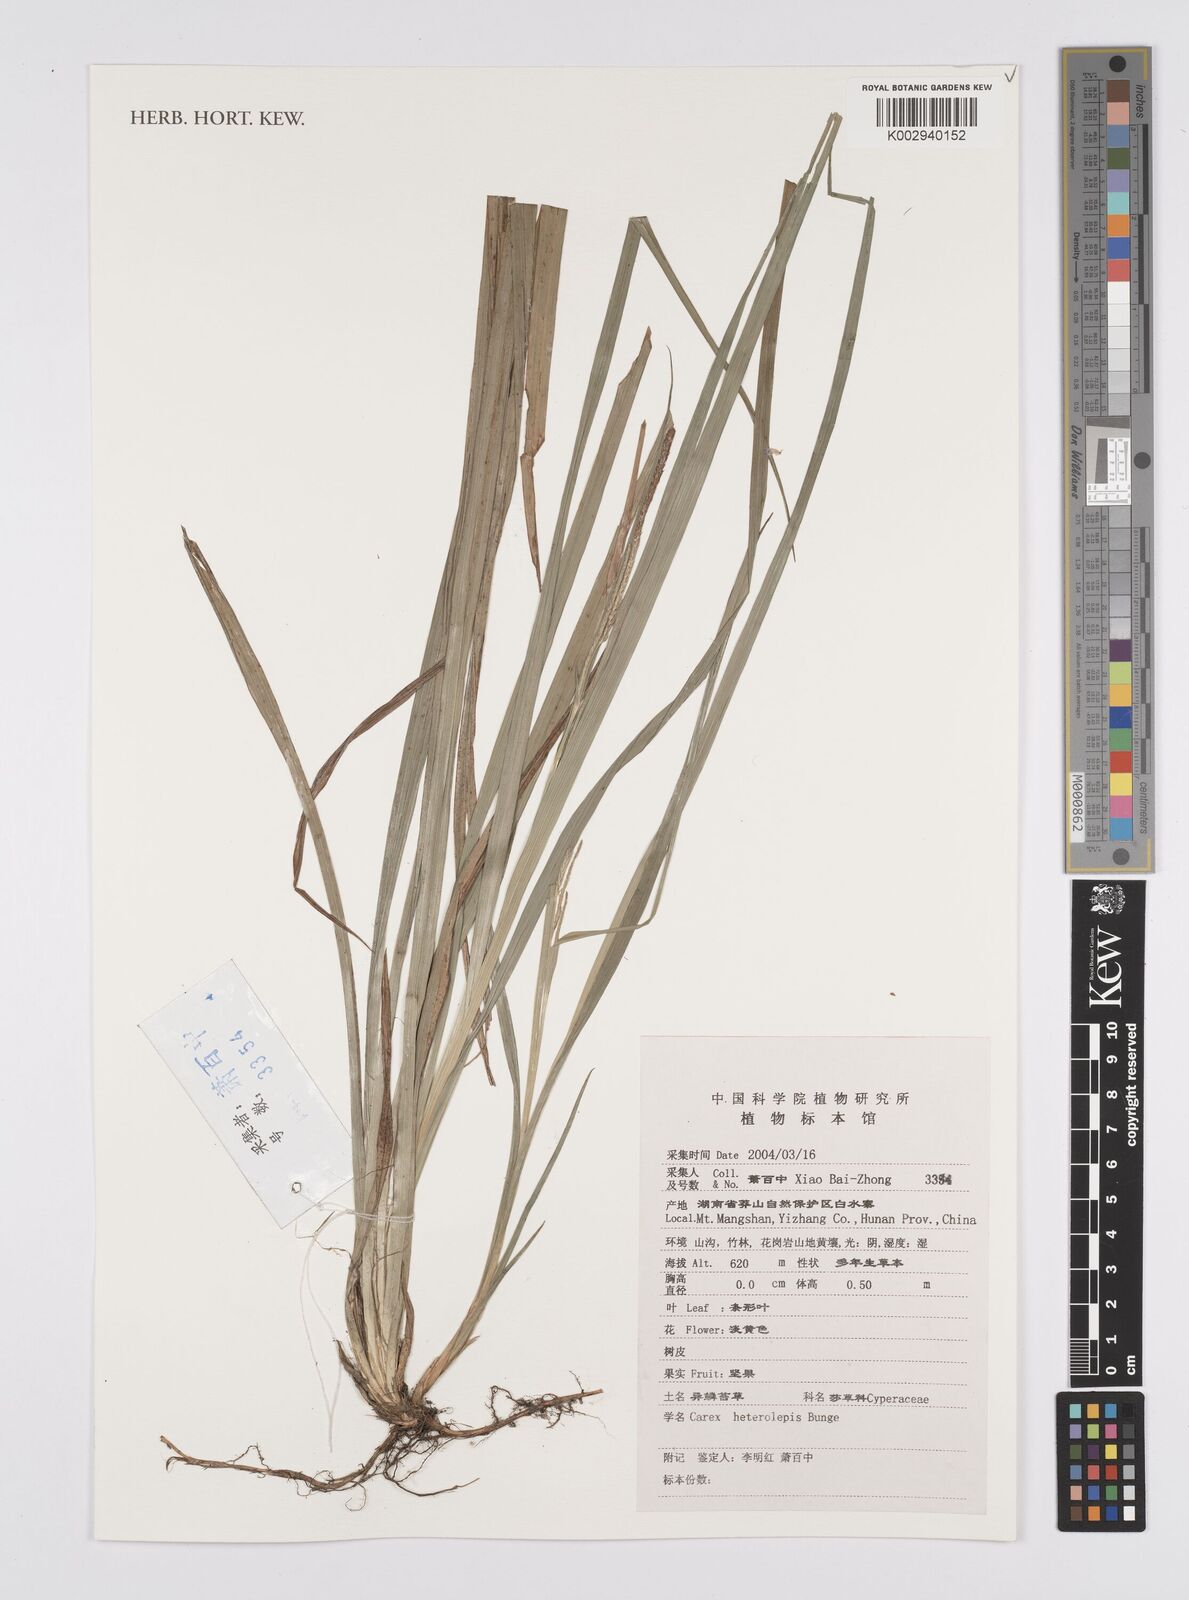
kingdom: Plantae
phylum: Tracheophyta
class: Liliopsida
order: Poales
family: Cyperaceae
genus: Carex
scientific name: Carex cruenta
